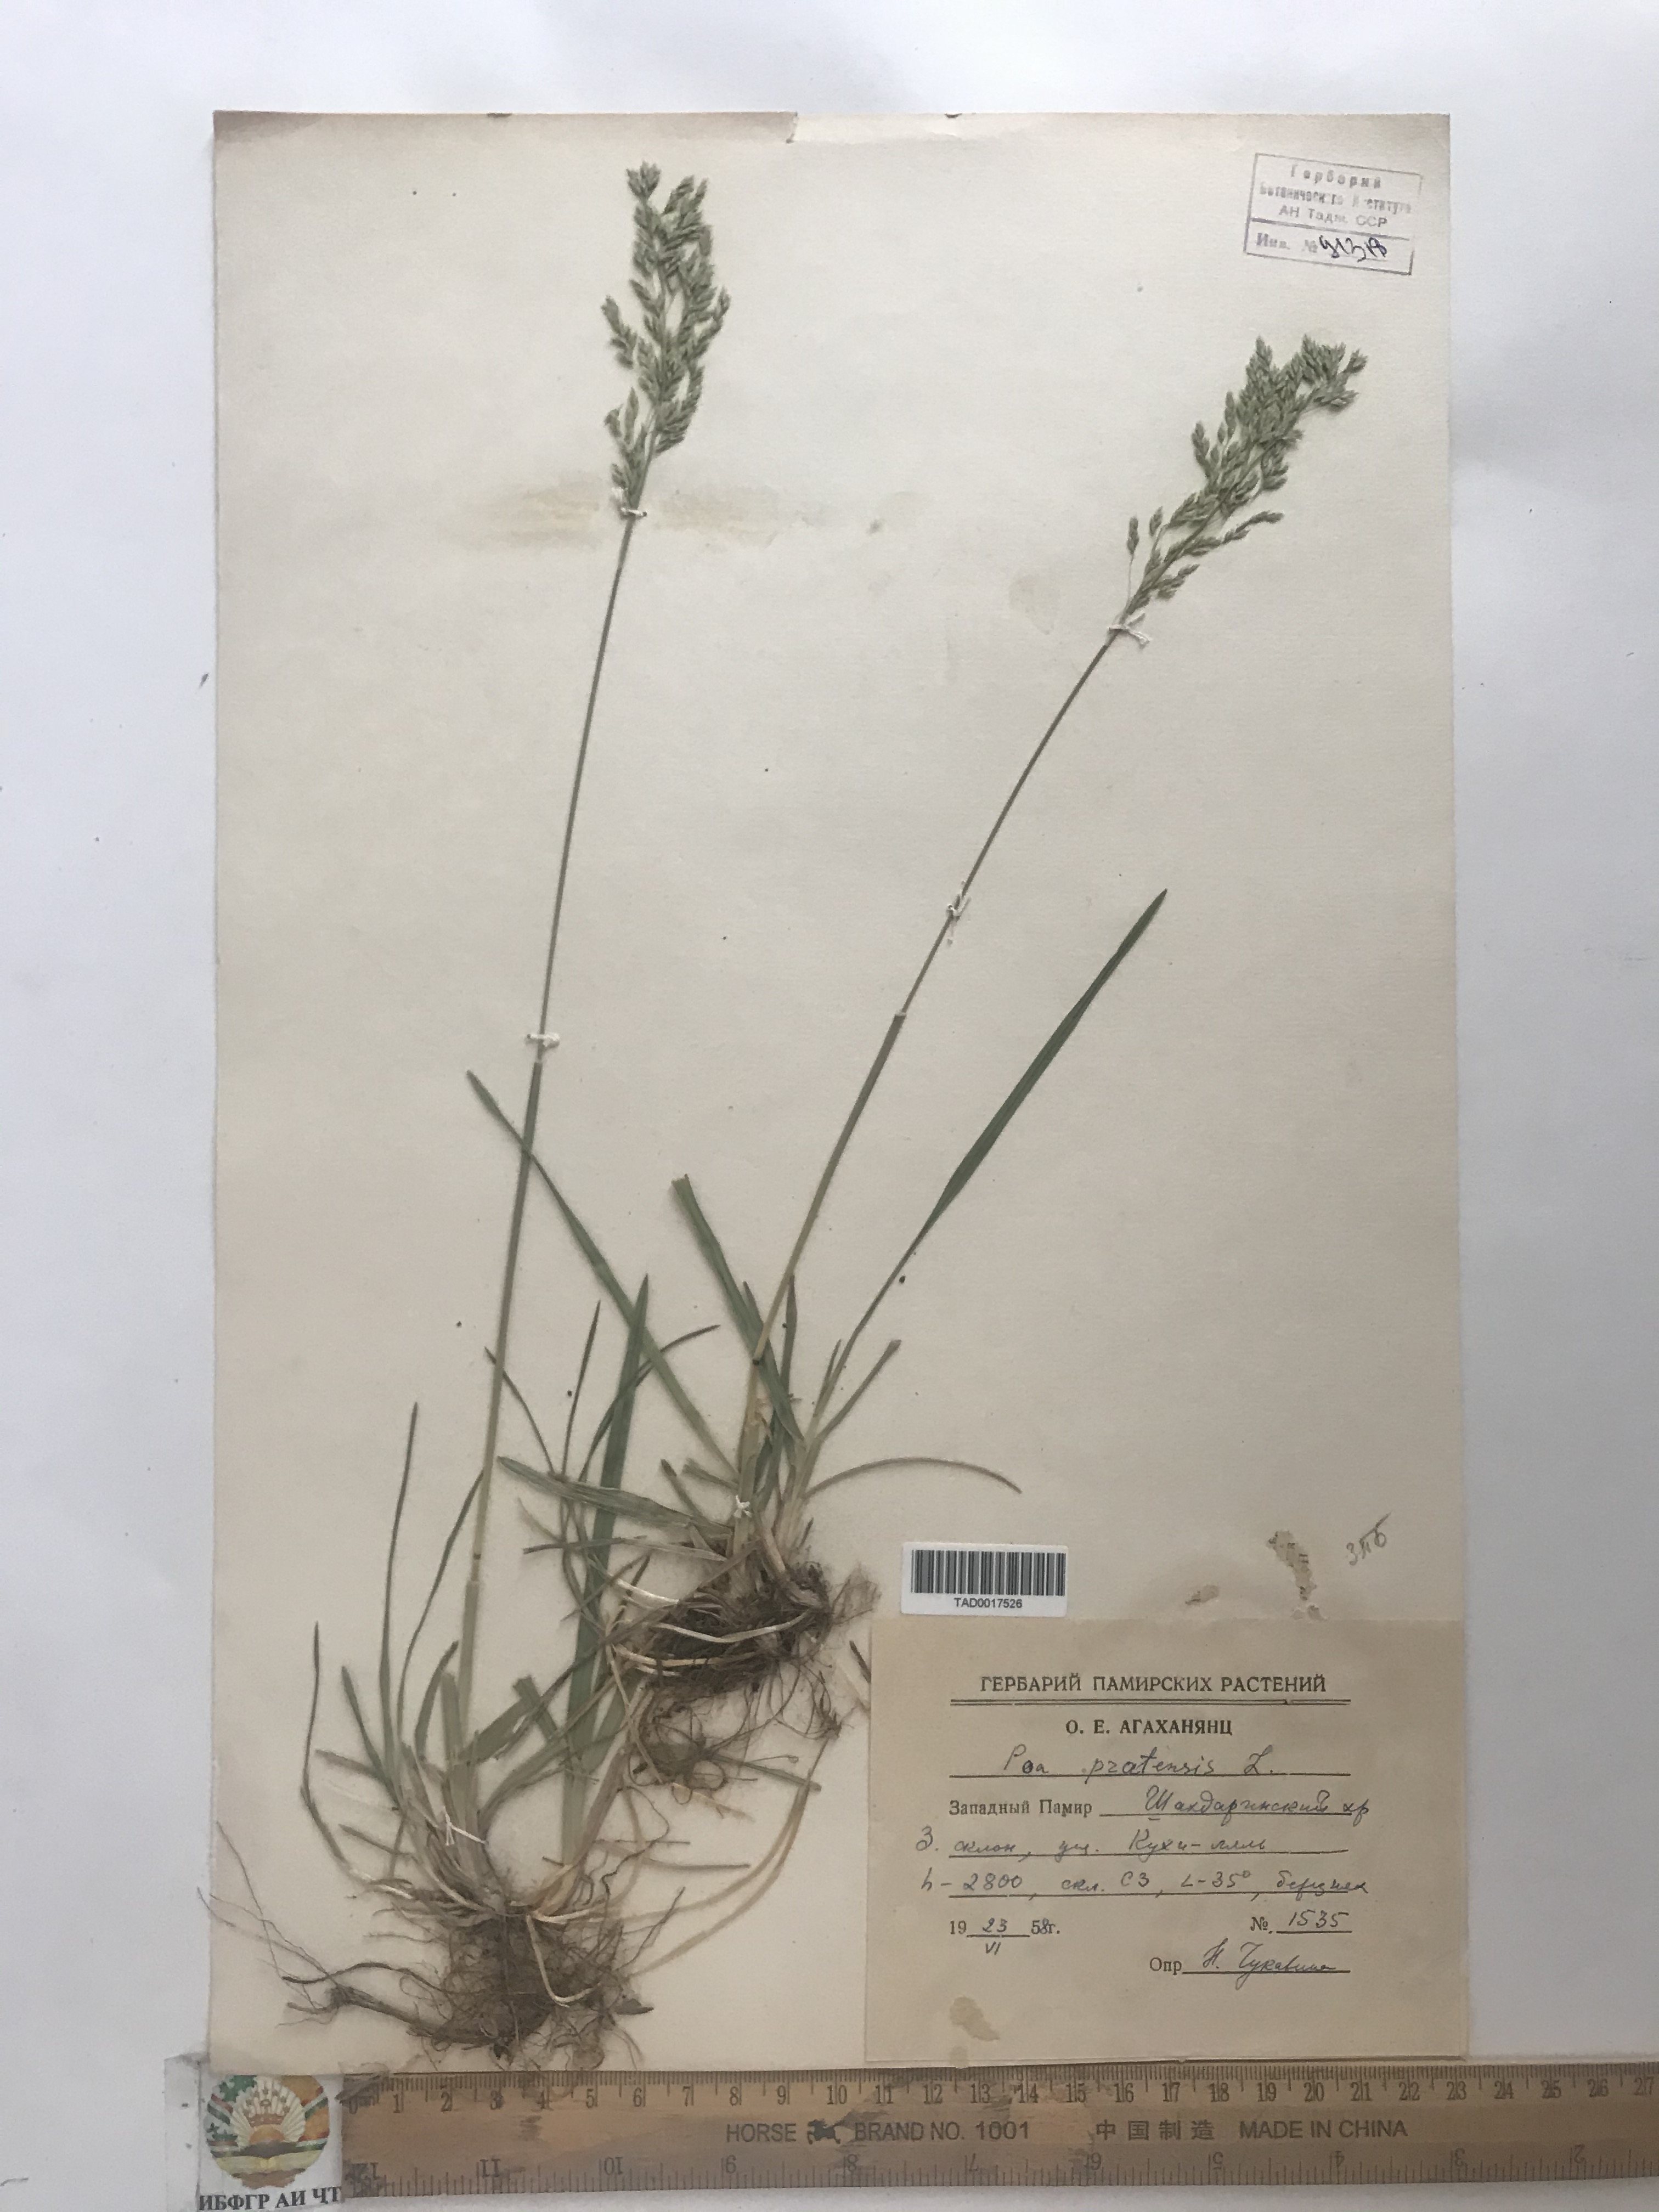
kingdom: Plantae
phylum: Tracheophyta
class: Liliopsida
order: Poales
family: Poaceae
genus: Poa
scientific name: Poa pratensis
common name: Kentucky bluegrass
